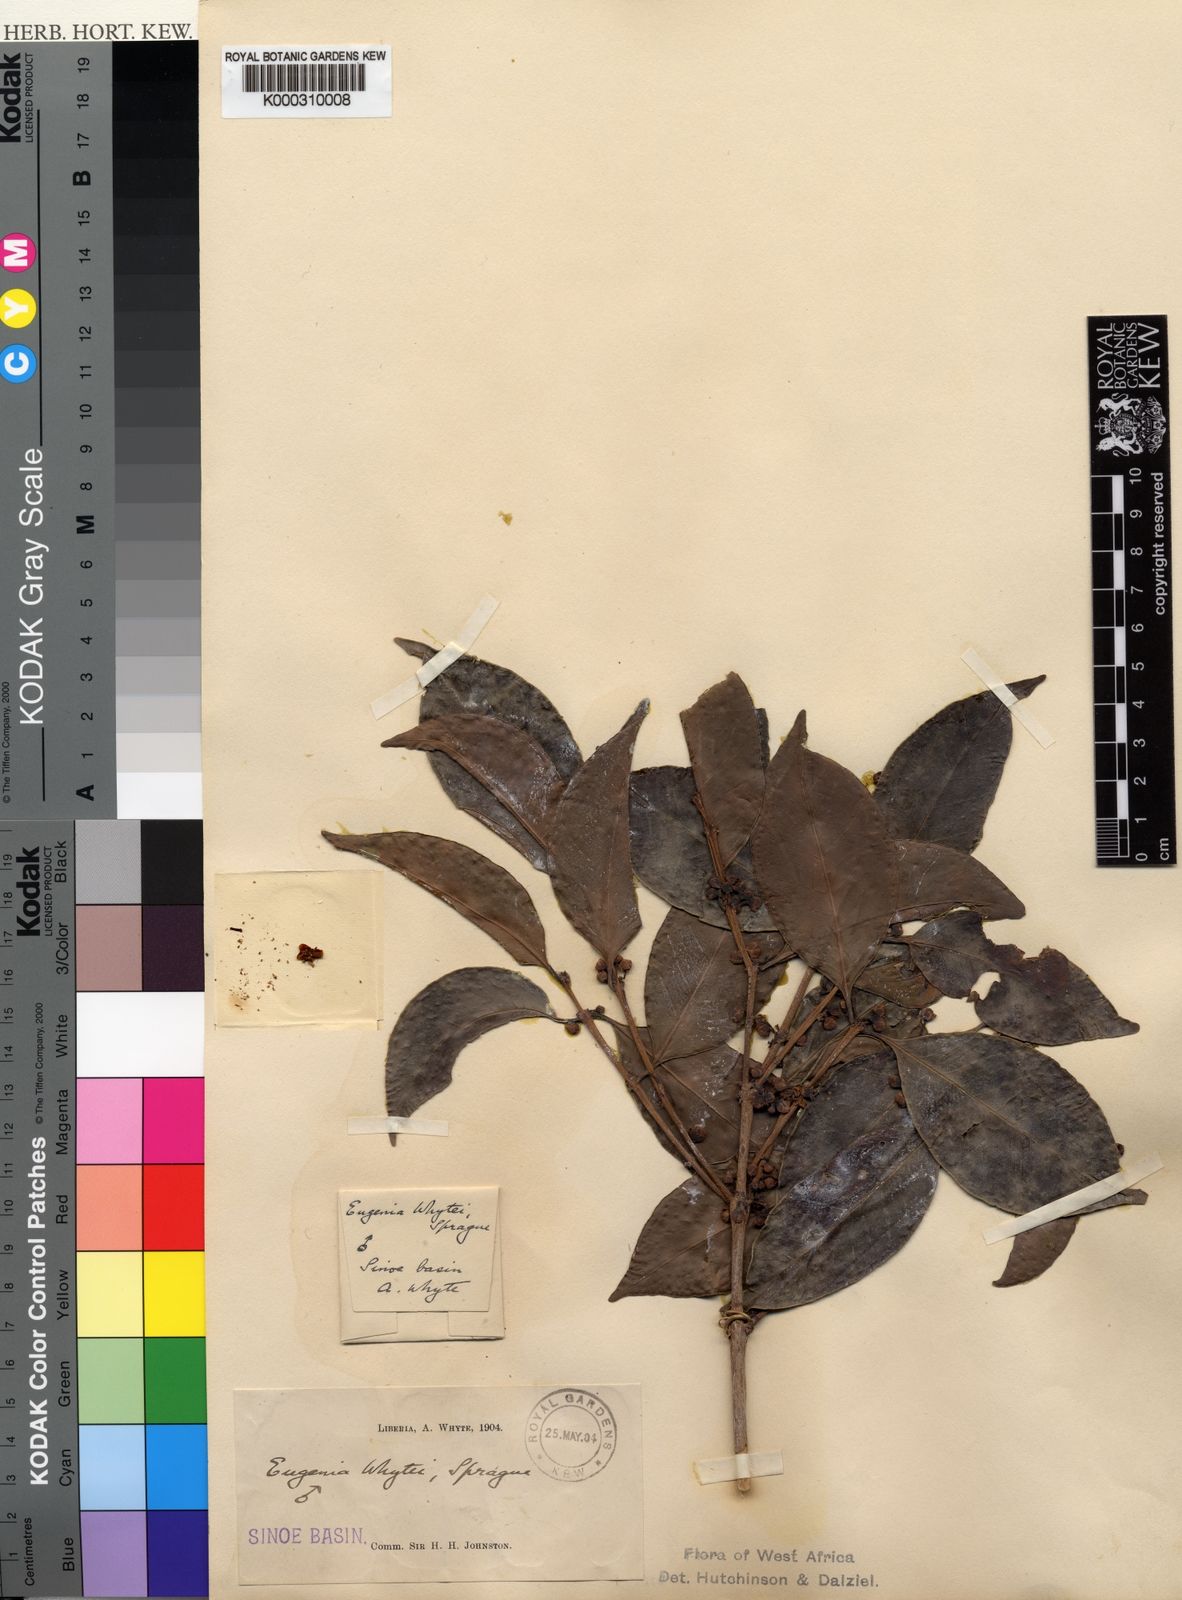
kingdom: Plantae
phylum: Tracheophyta
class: Magnoliopsida
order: Myrtales
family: Myrtaceae
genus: Eugenia
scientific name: Eugenia whytei
